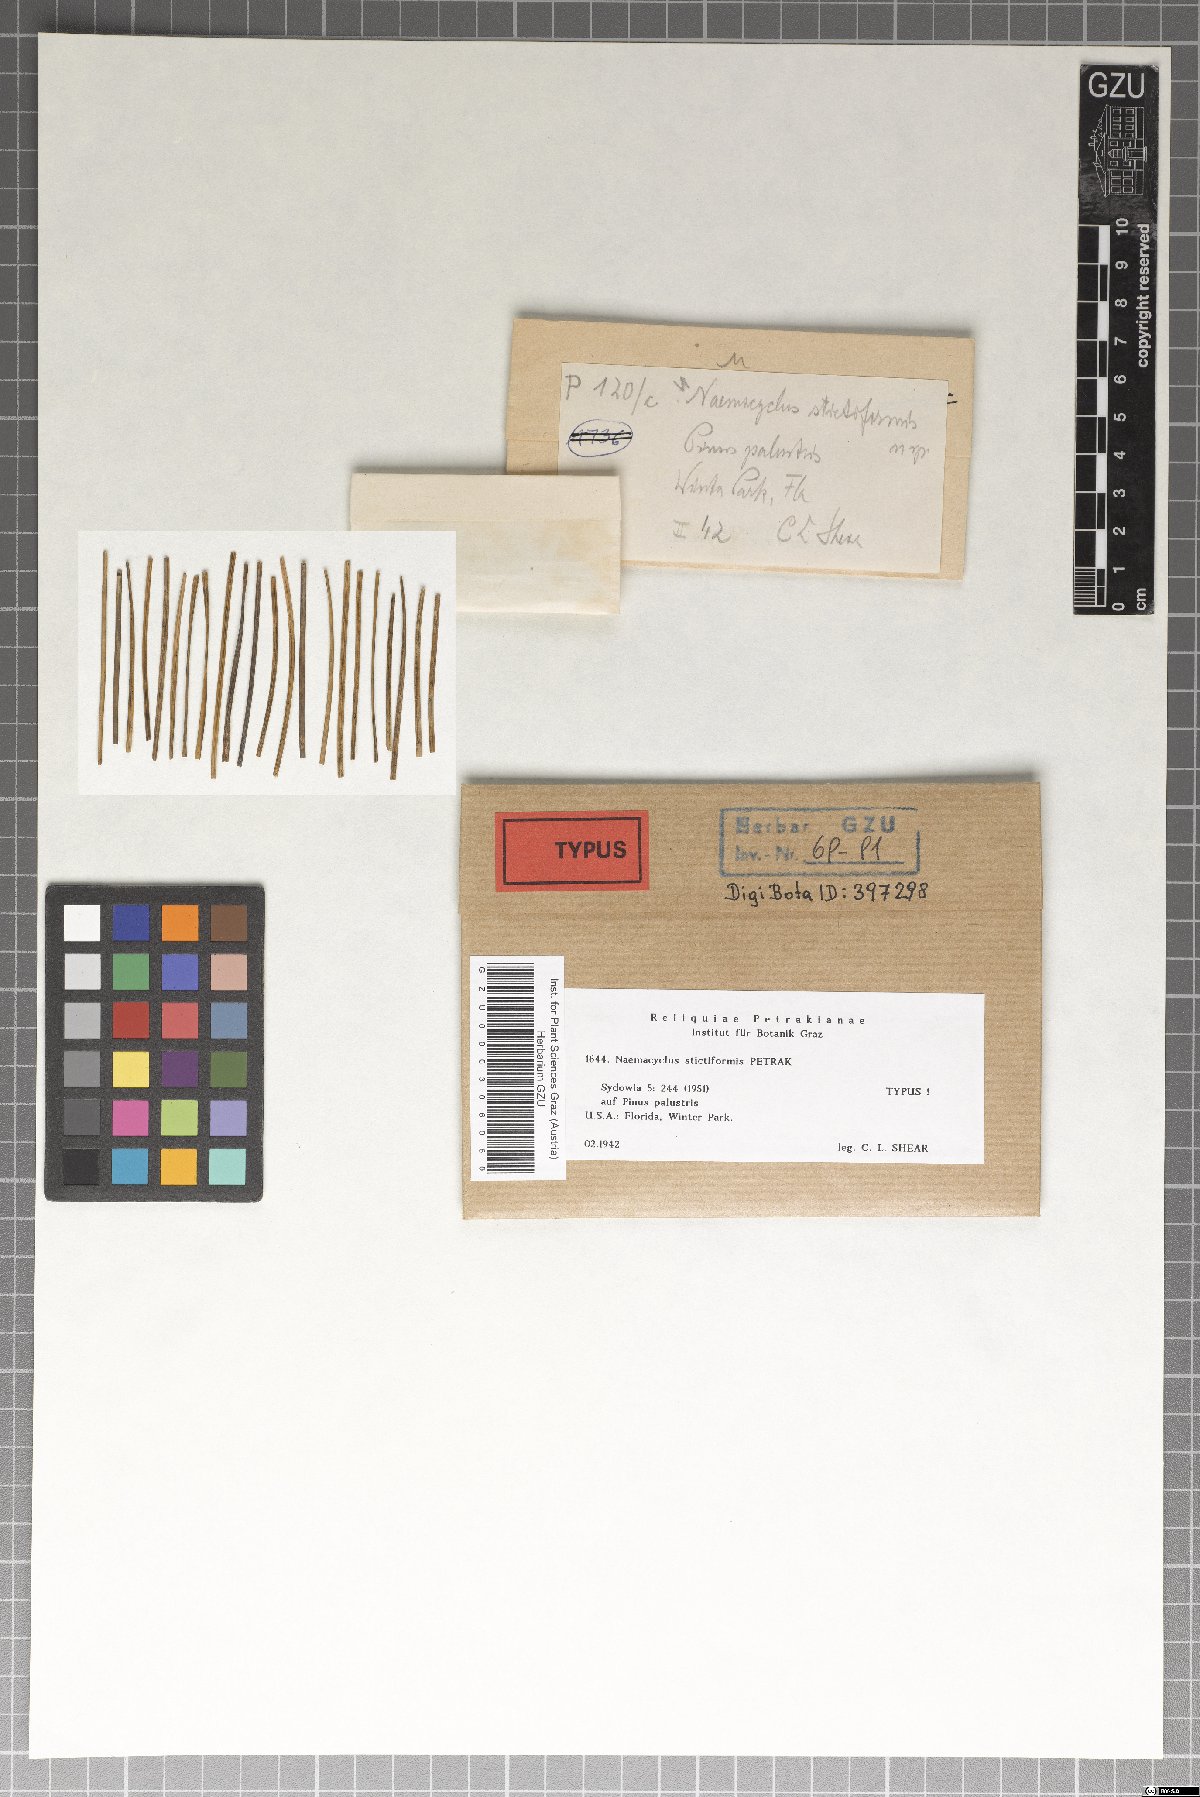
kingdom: Fungi
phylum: Ascomycota
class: Leotiomycetes
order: Chaetomellales
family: Marthamycetaceae
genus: Naemacyclus
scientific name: Naemacyclus stictiformis
